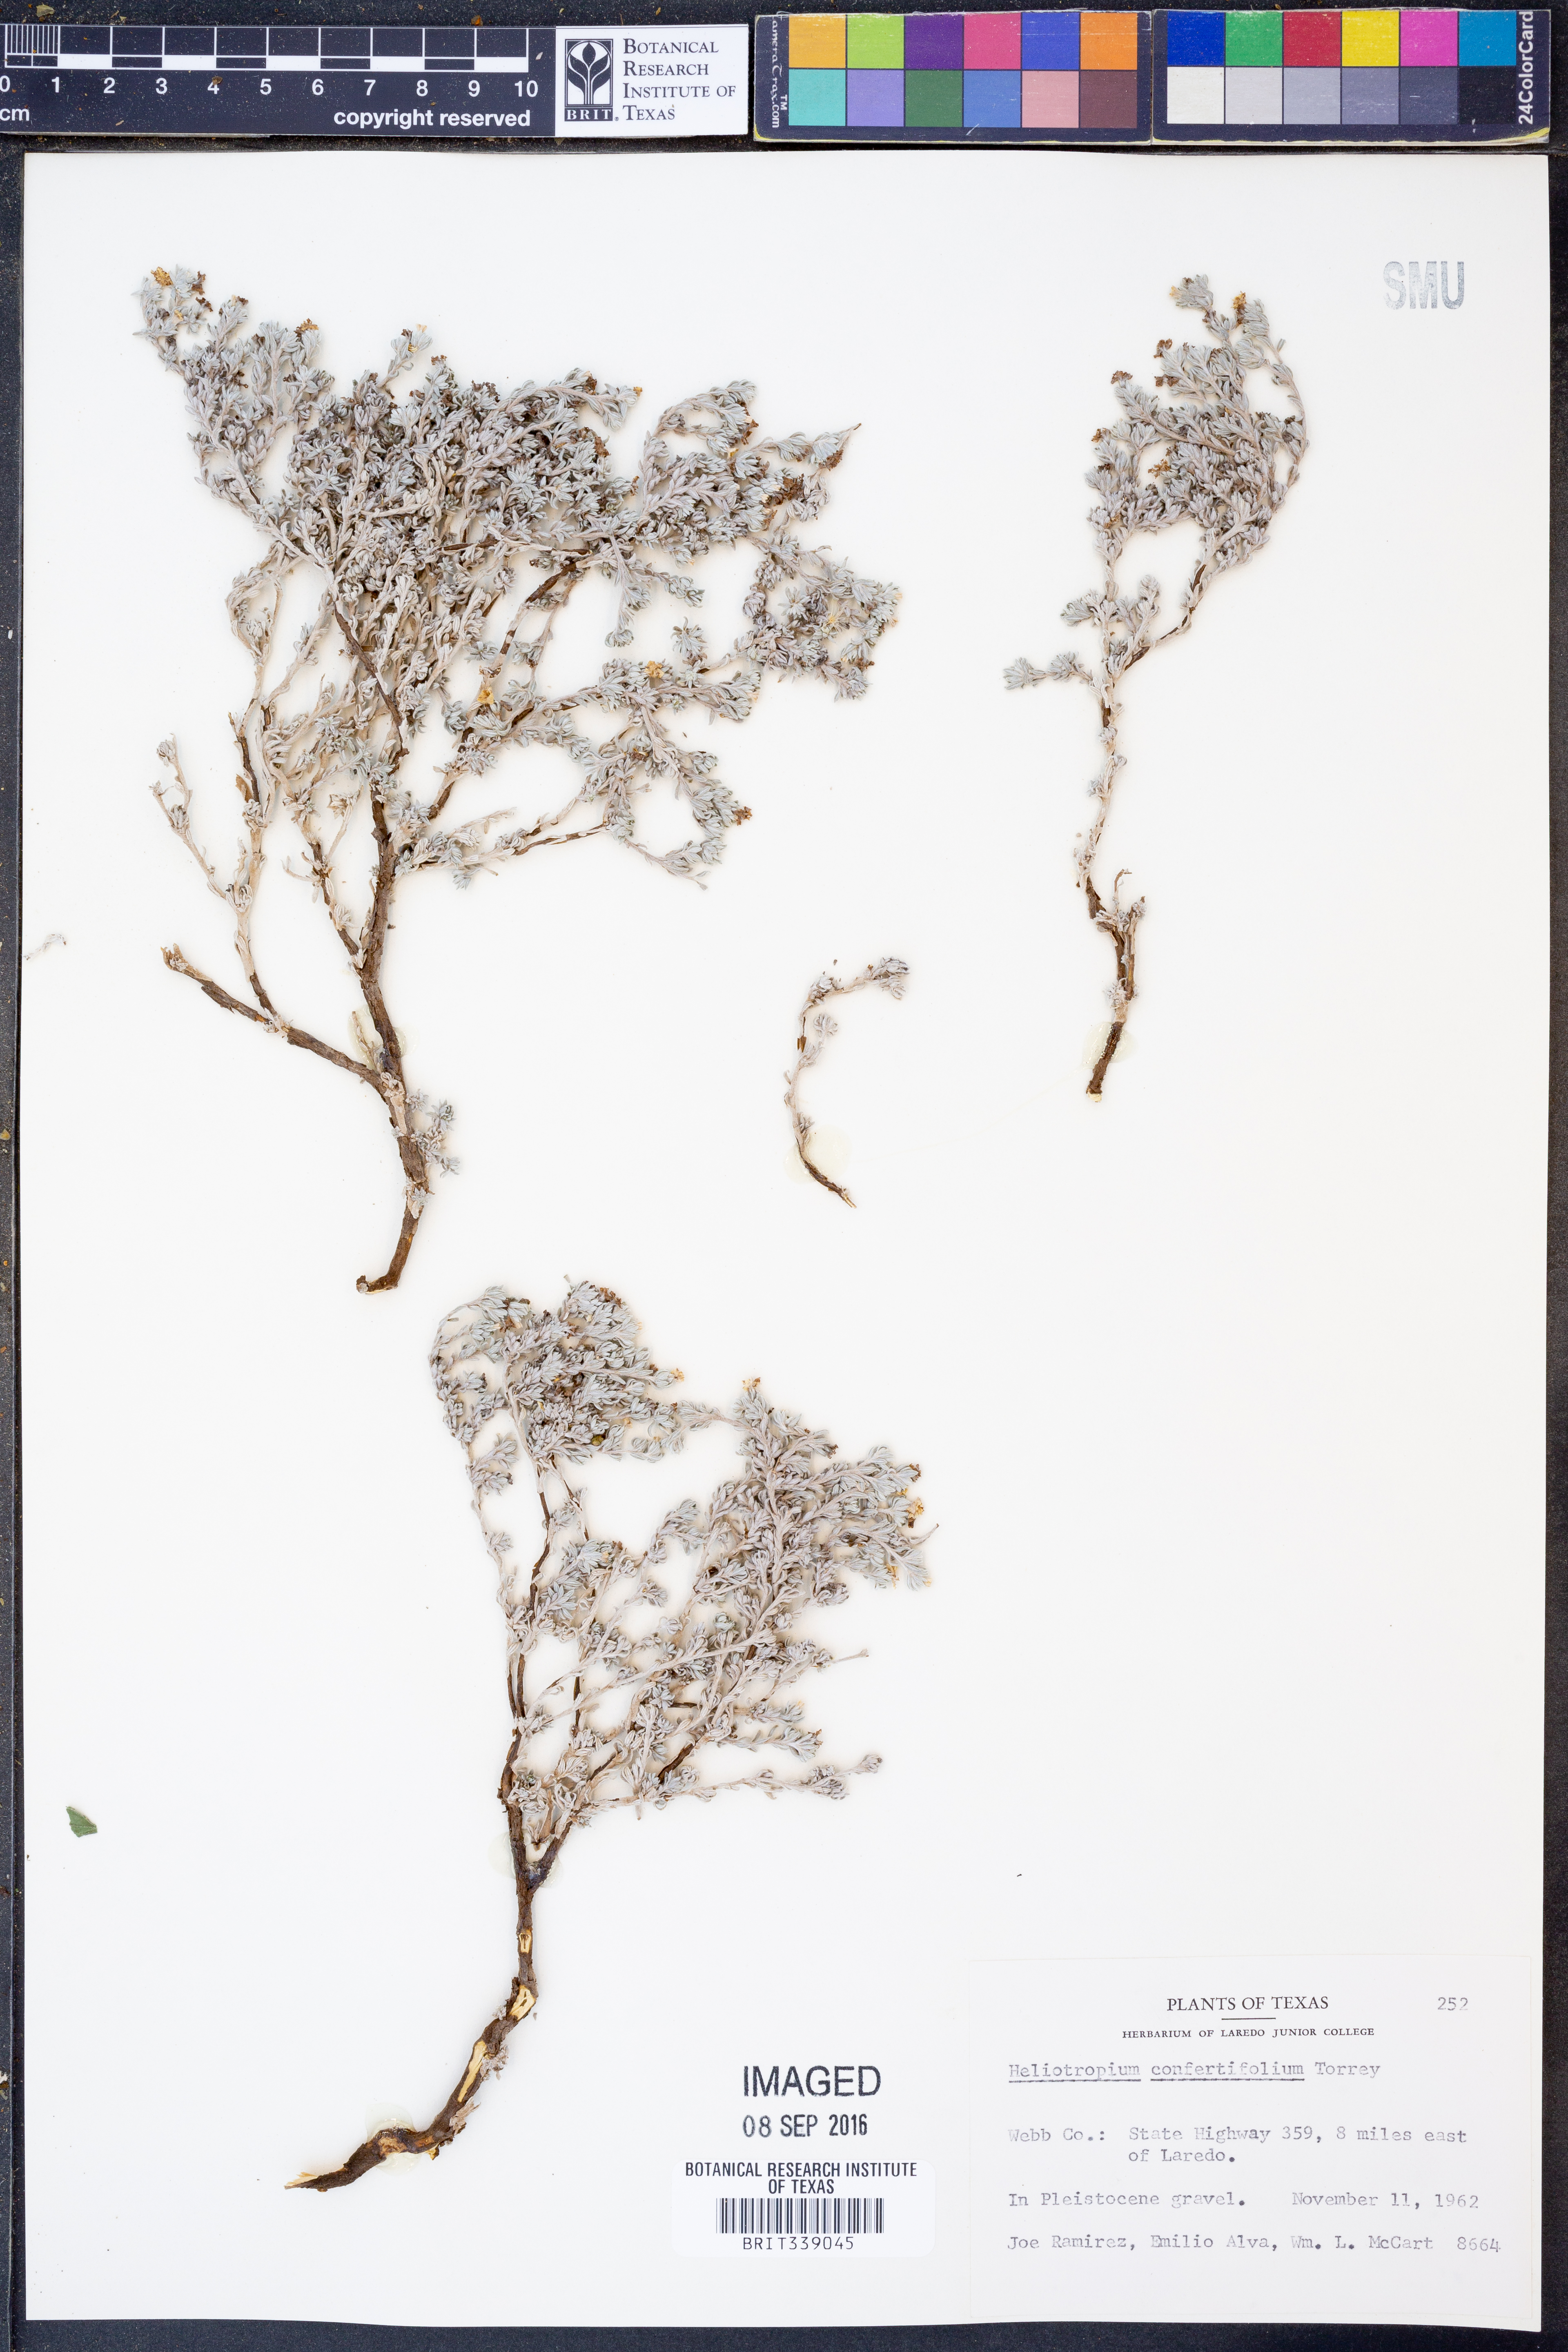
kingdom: Plantae
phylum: Tracheophyta
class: Magnoliopsida
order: Boraginales
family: Heliotropiaceae
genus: Euploca
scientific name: Euploca confertifolia
